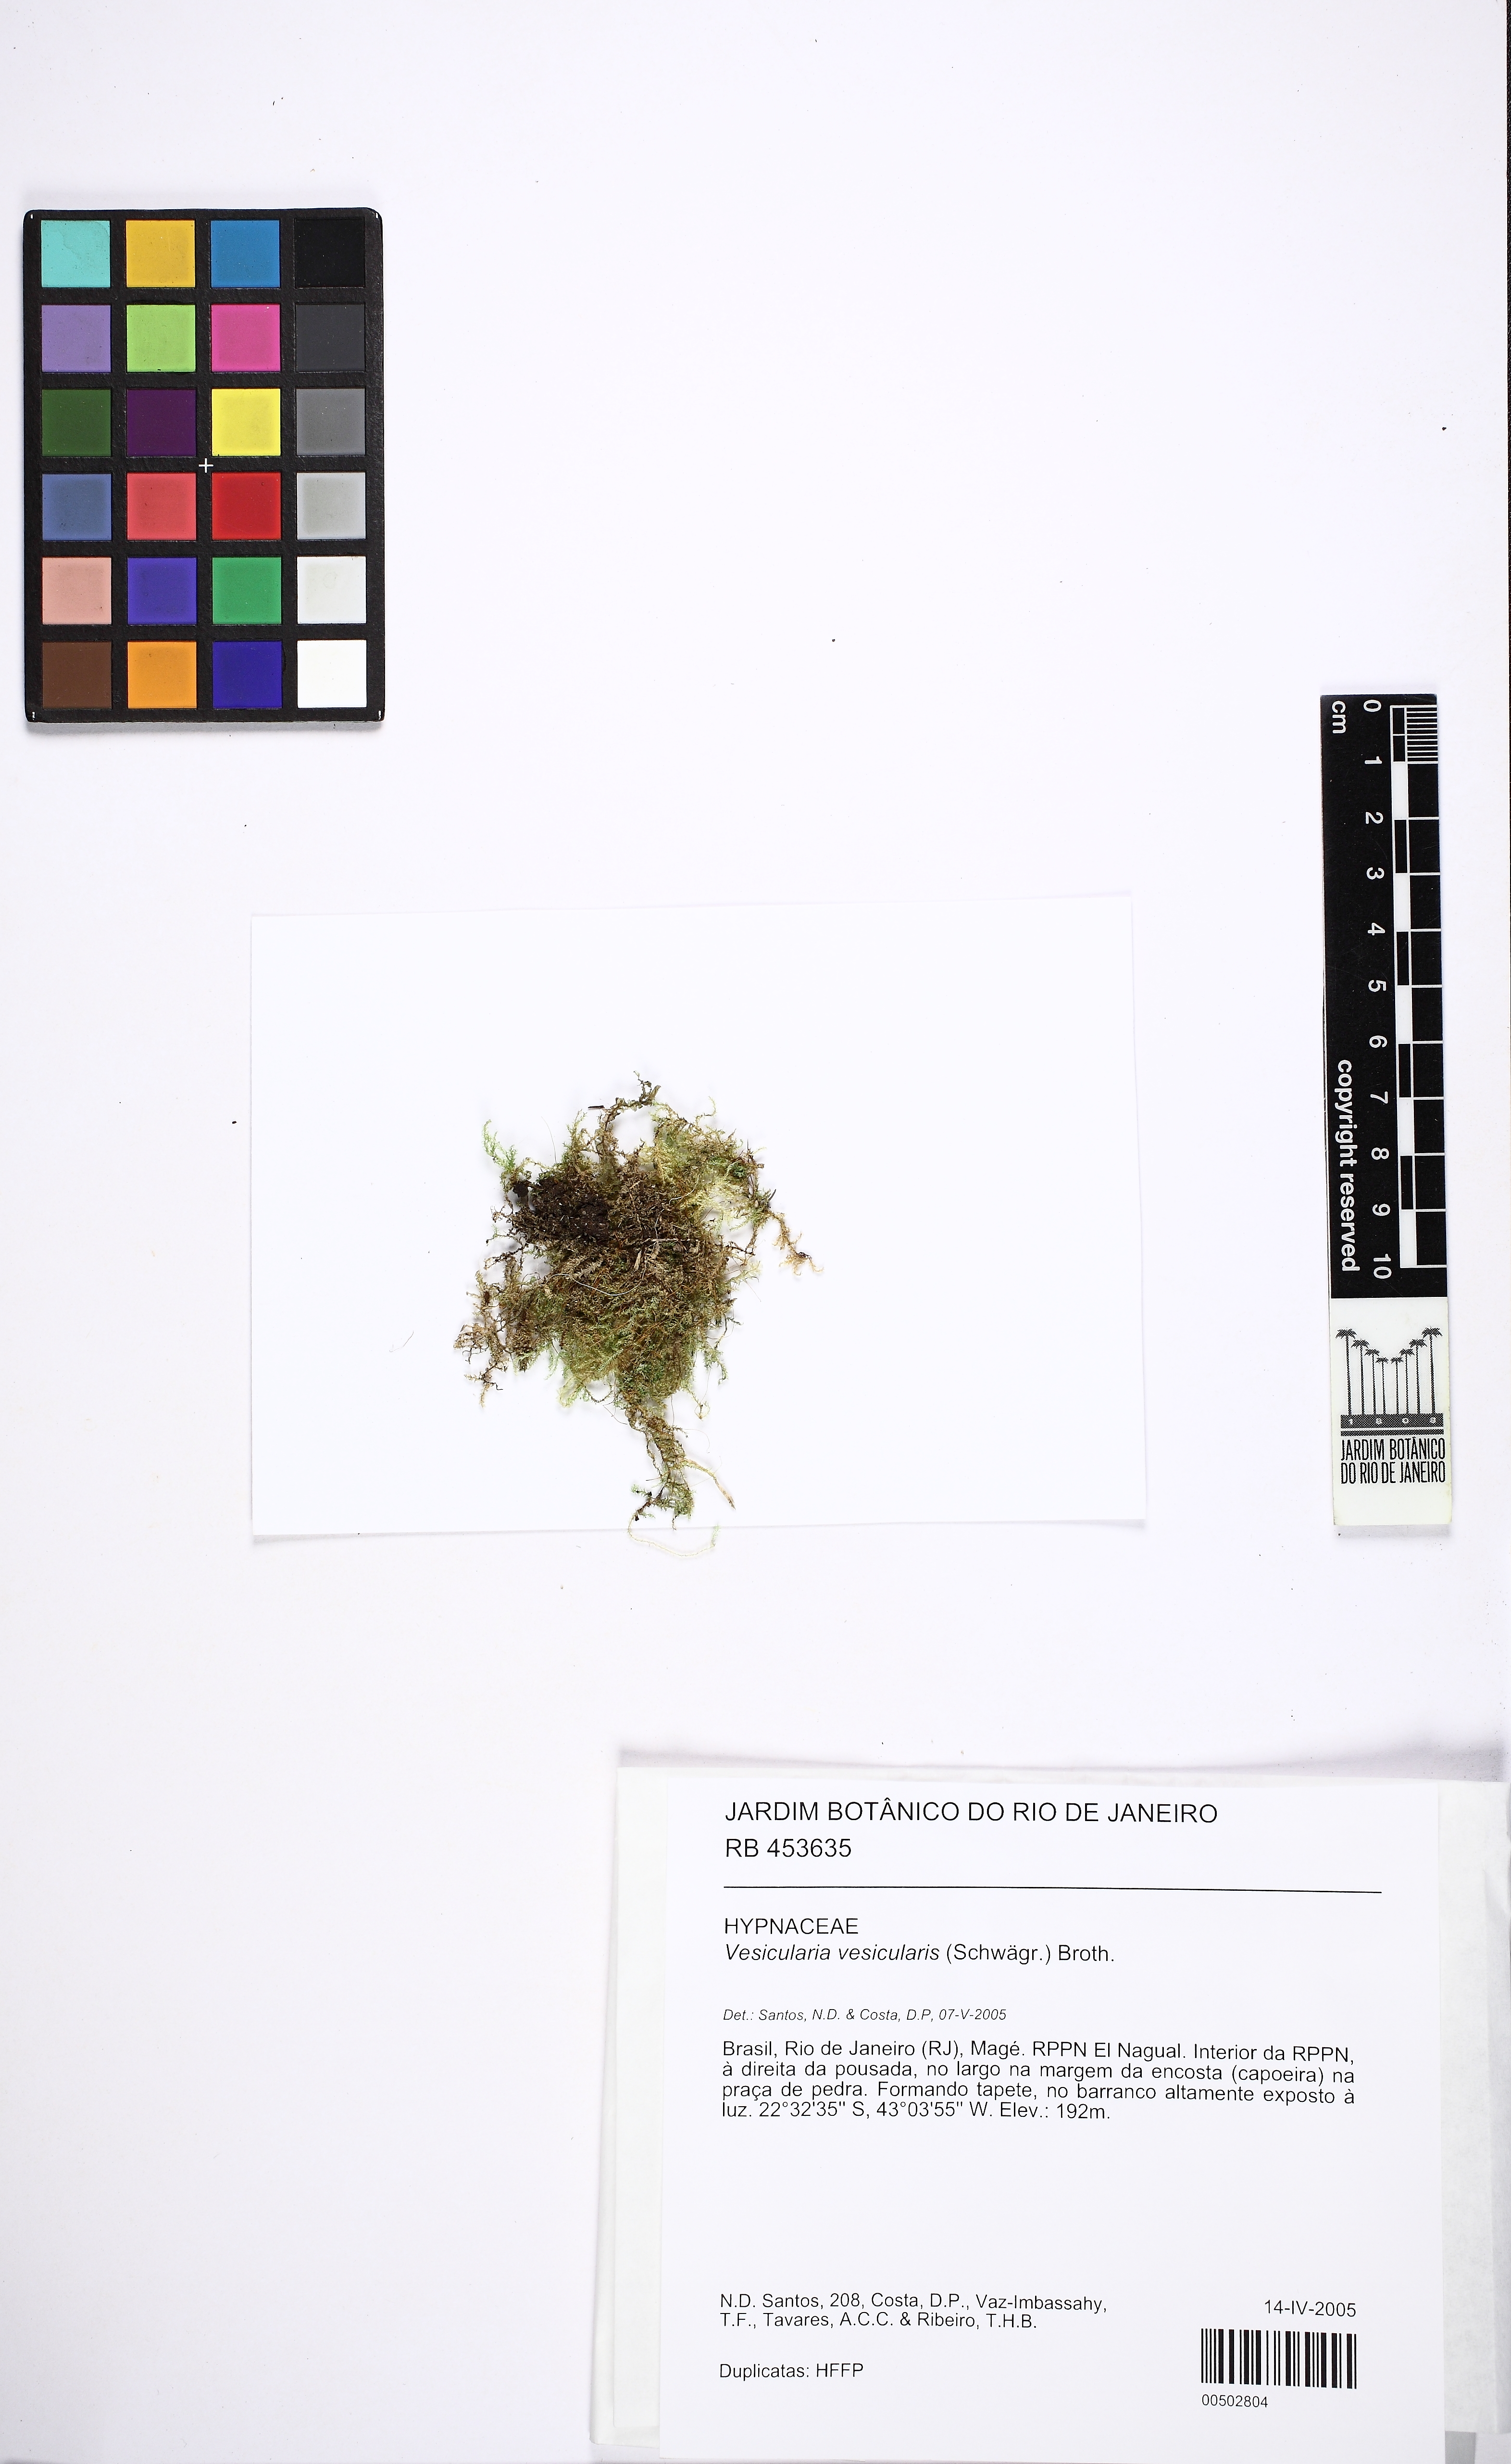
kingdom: Plantae
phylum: Bryophyta
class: Bryopsida
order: Hypnales
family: Hypnaceae
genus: Vesicularia
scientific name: Vesicularia vesicularis
